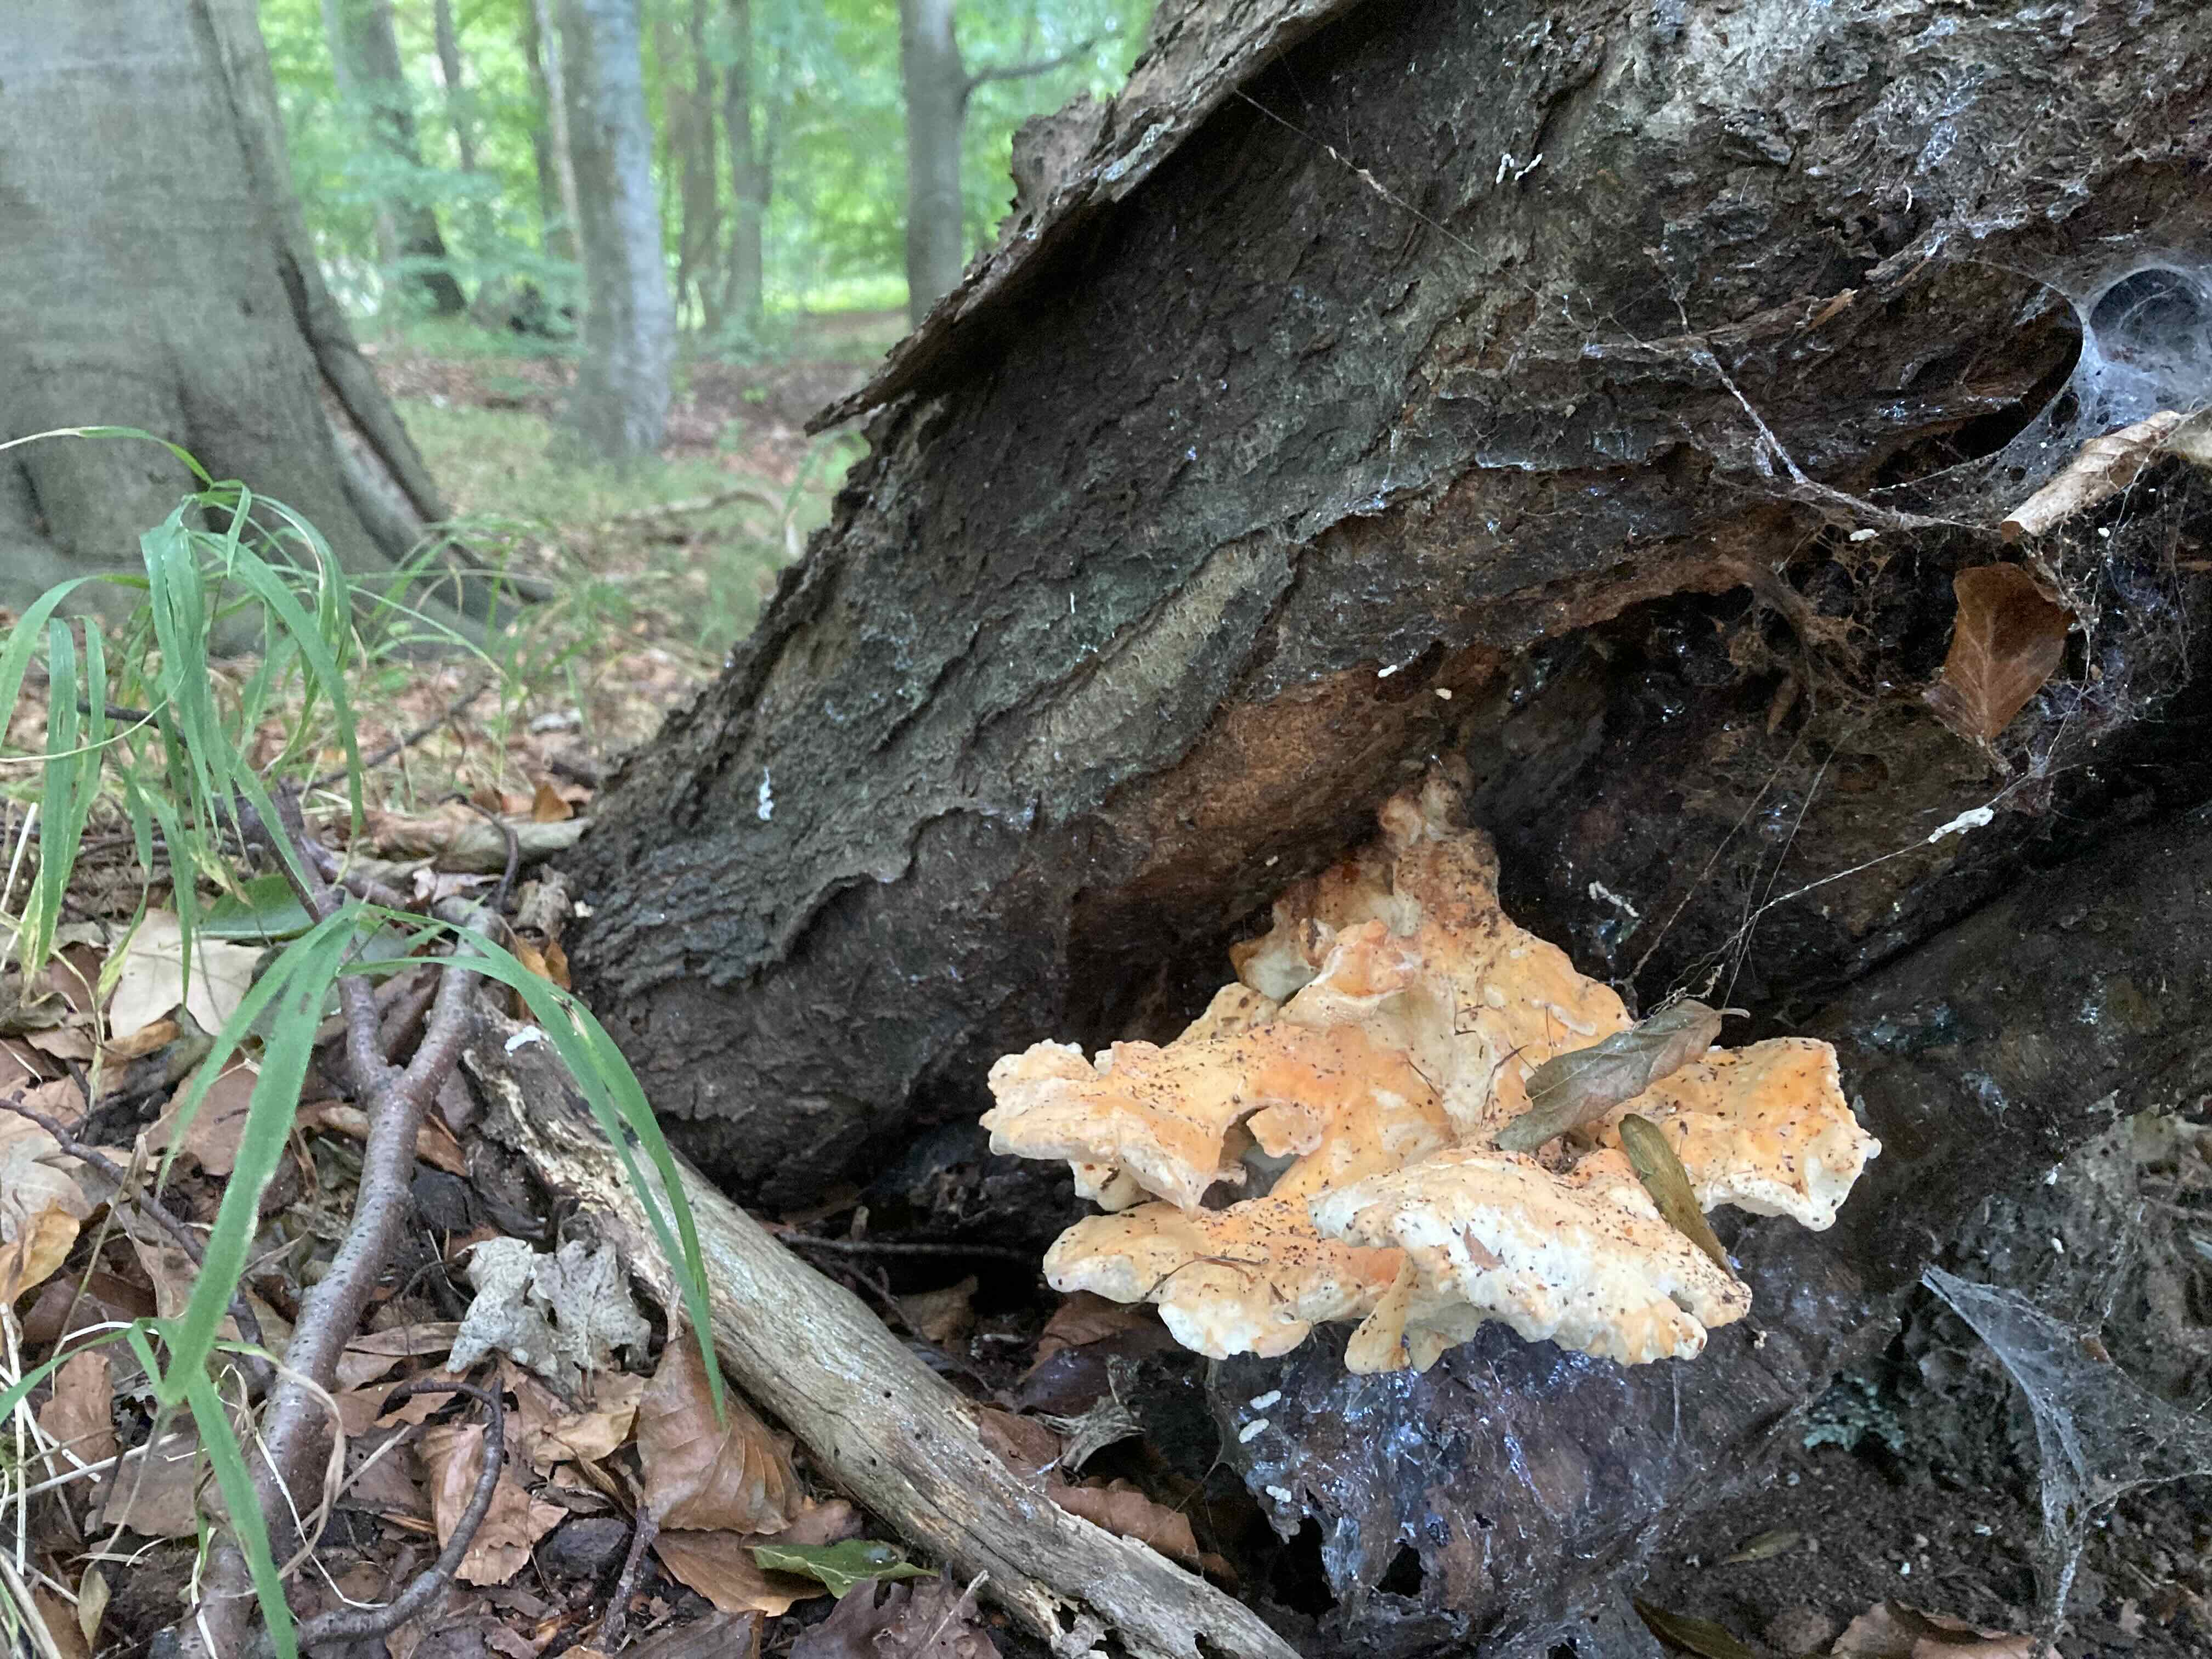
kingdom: Fungi
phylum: Basidiomycota
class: Agaricomycetes
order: Polyporales
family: Laetiporaceae
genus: Laetiporus
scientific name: Laetiporus sulphureus
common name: svovlporesvamp
